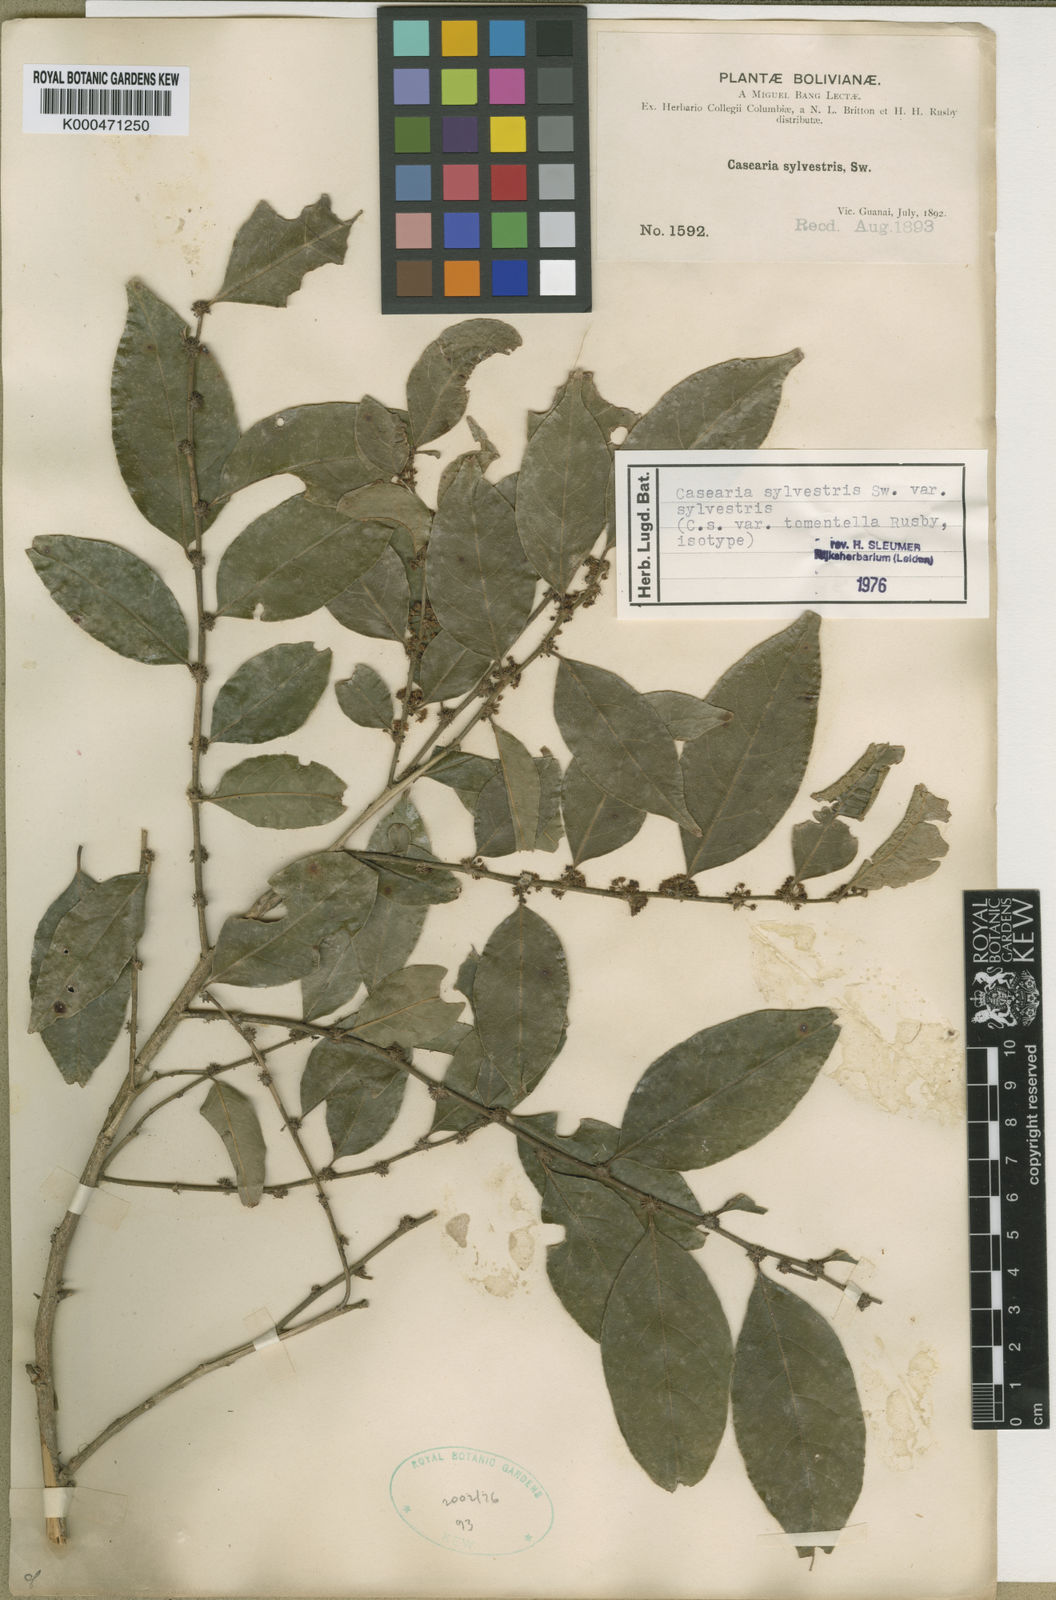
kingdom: Plantae
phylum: Tracheophyta
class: Magnoliopsida
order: Malpighiales
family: Salicaceae
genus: Casearia
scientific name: Casearia sylvestris
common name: Wild sage
